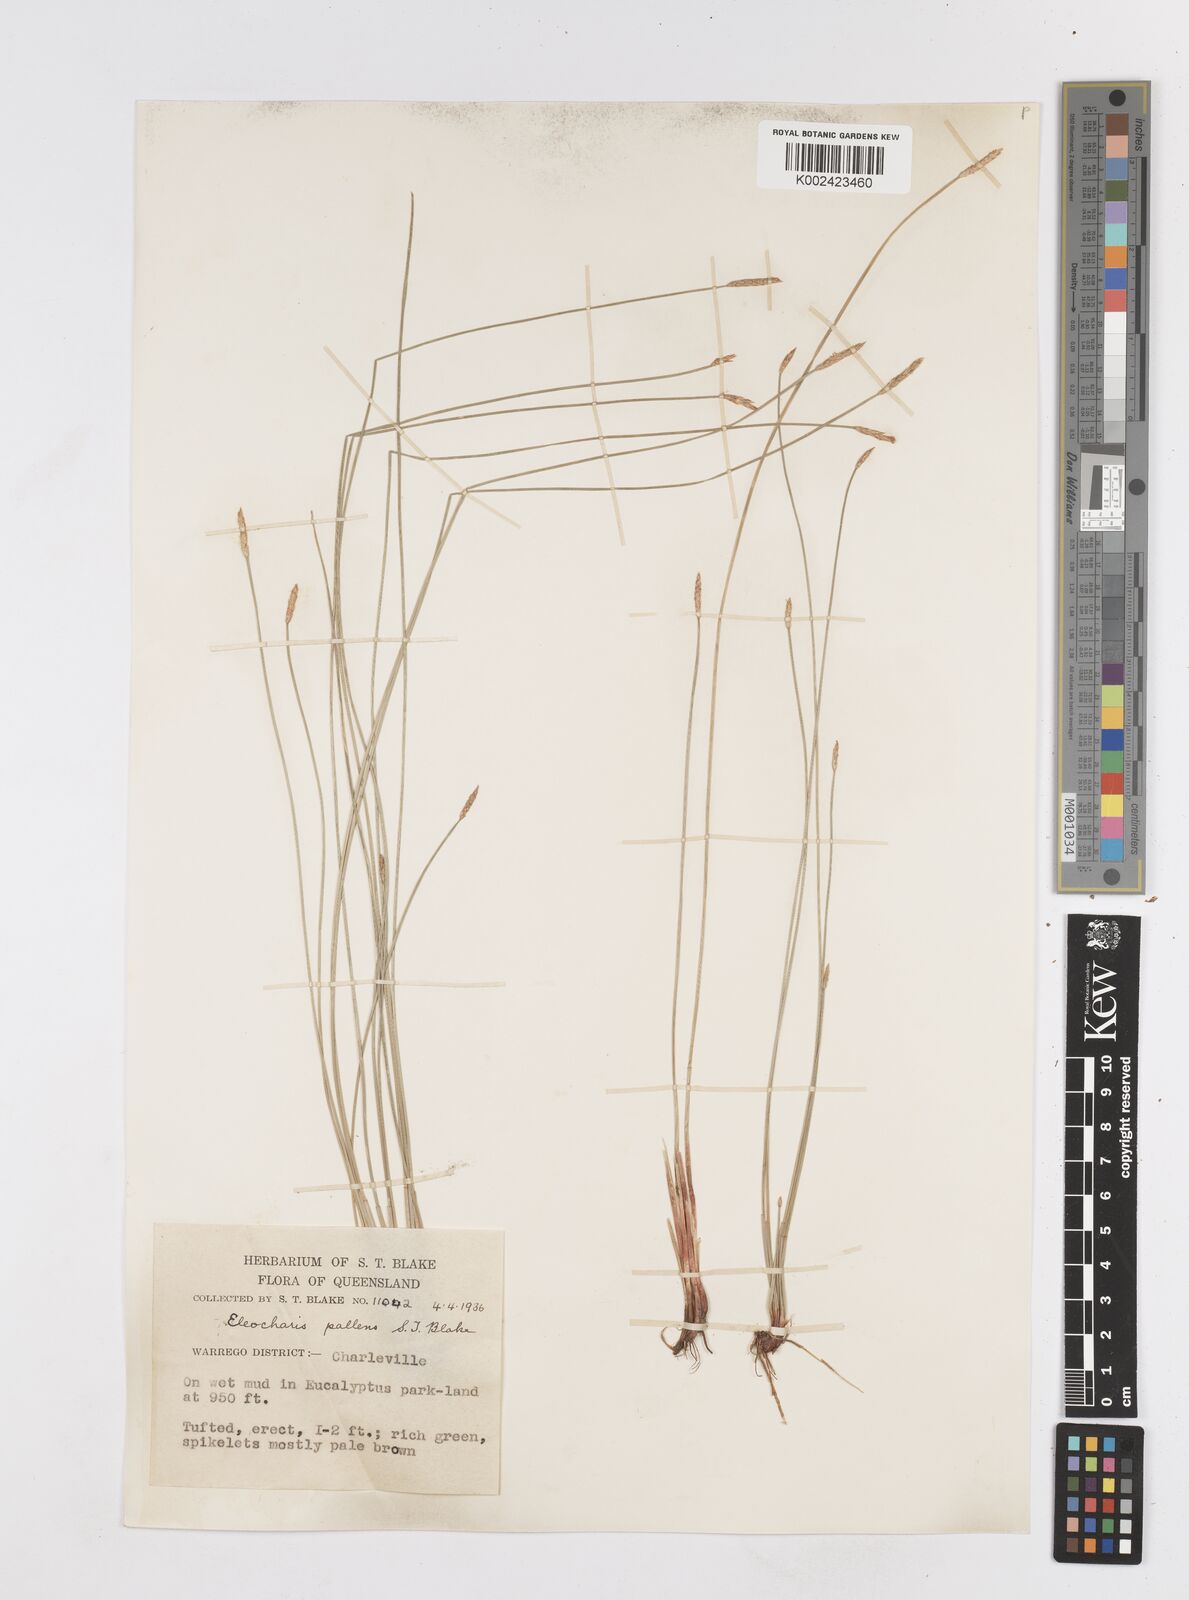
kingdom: Plantae
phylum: Tracheophyta
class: Liliopsida
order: Poales
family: Cyperaceae
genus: Eleocharis
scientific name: Eleocharis acuta
